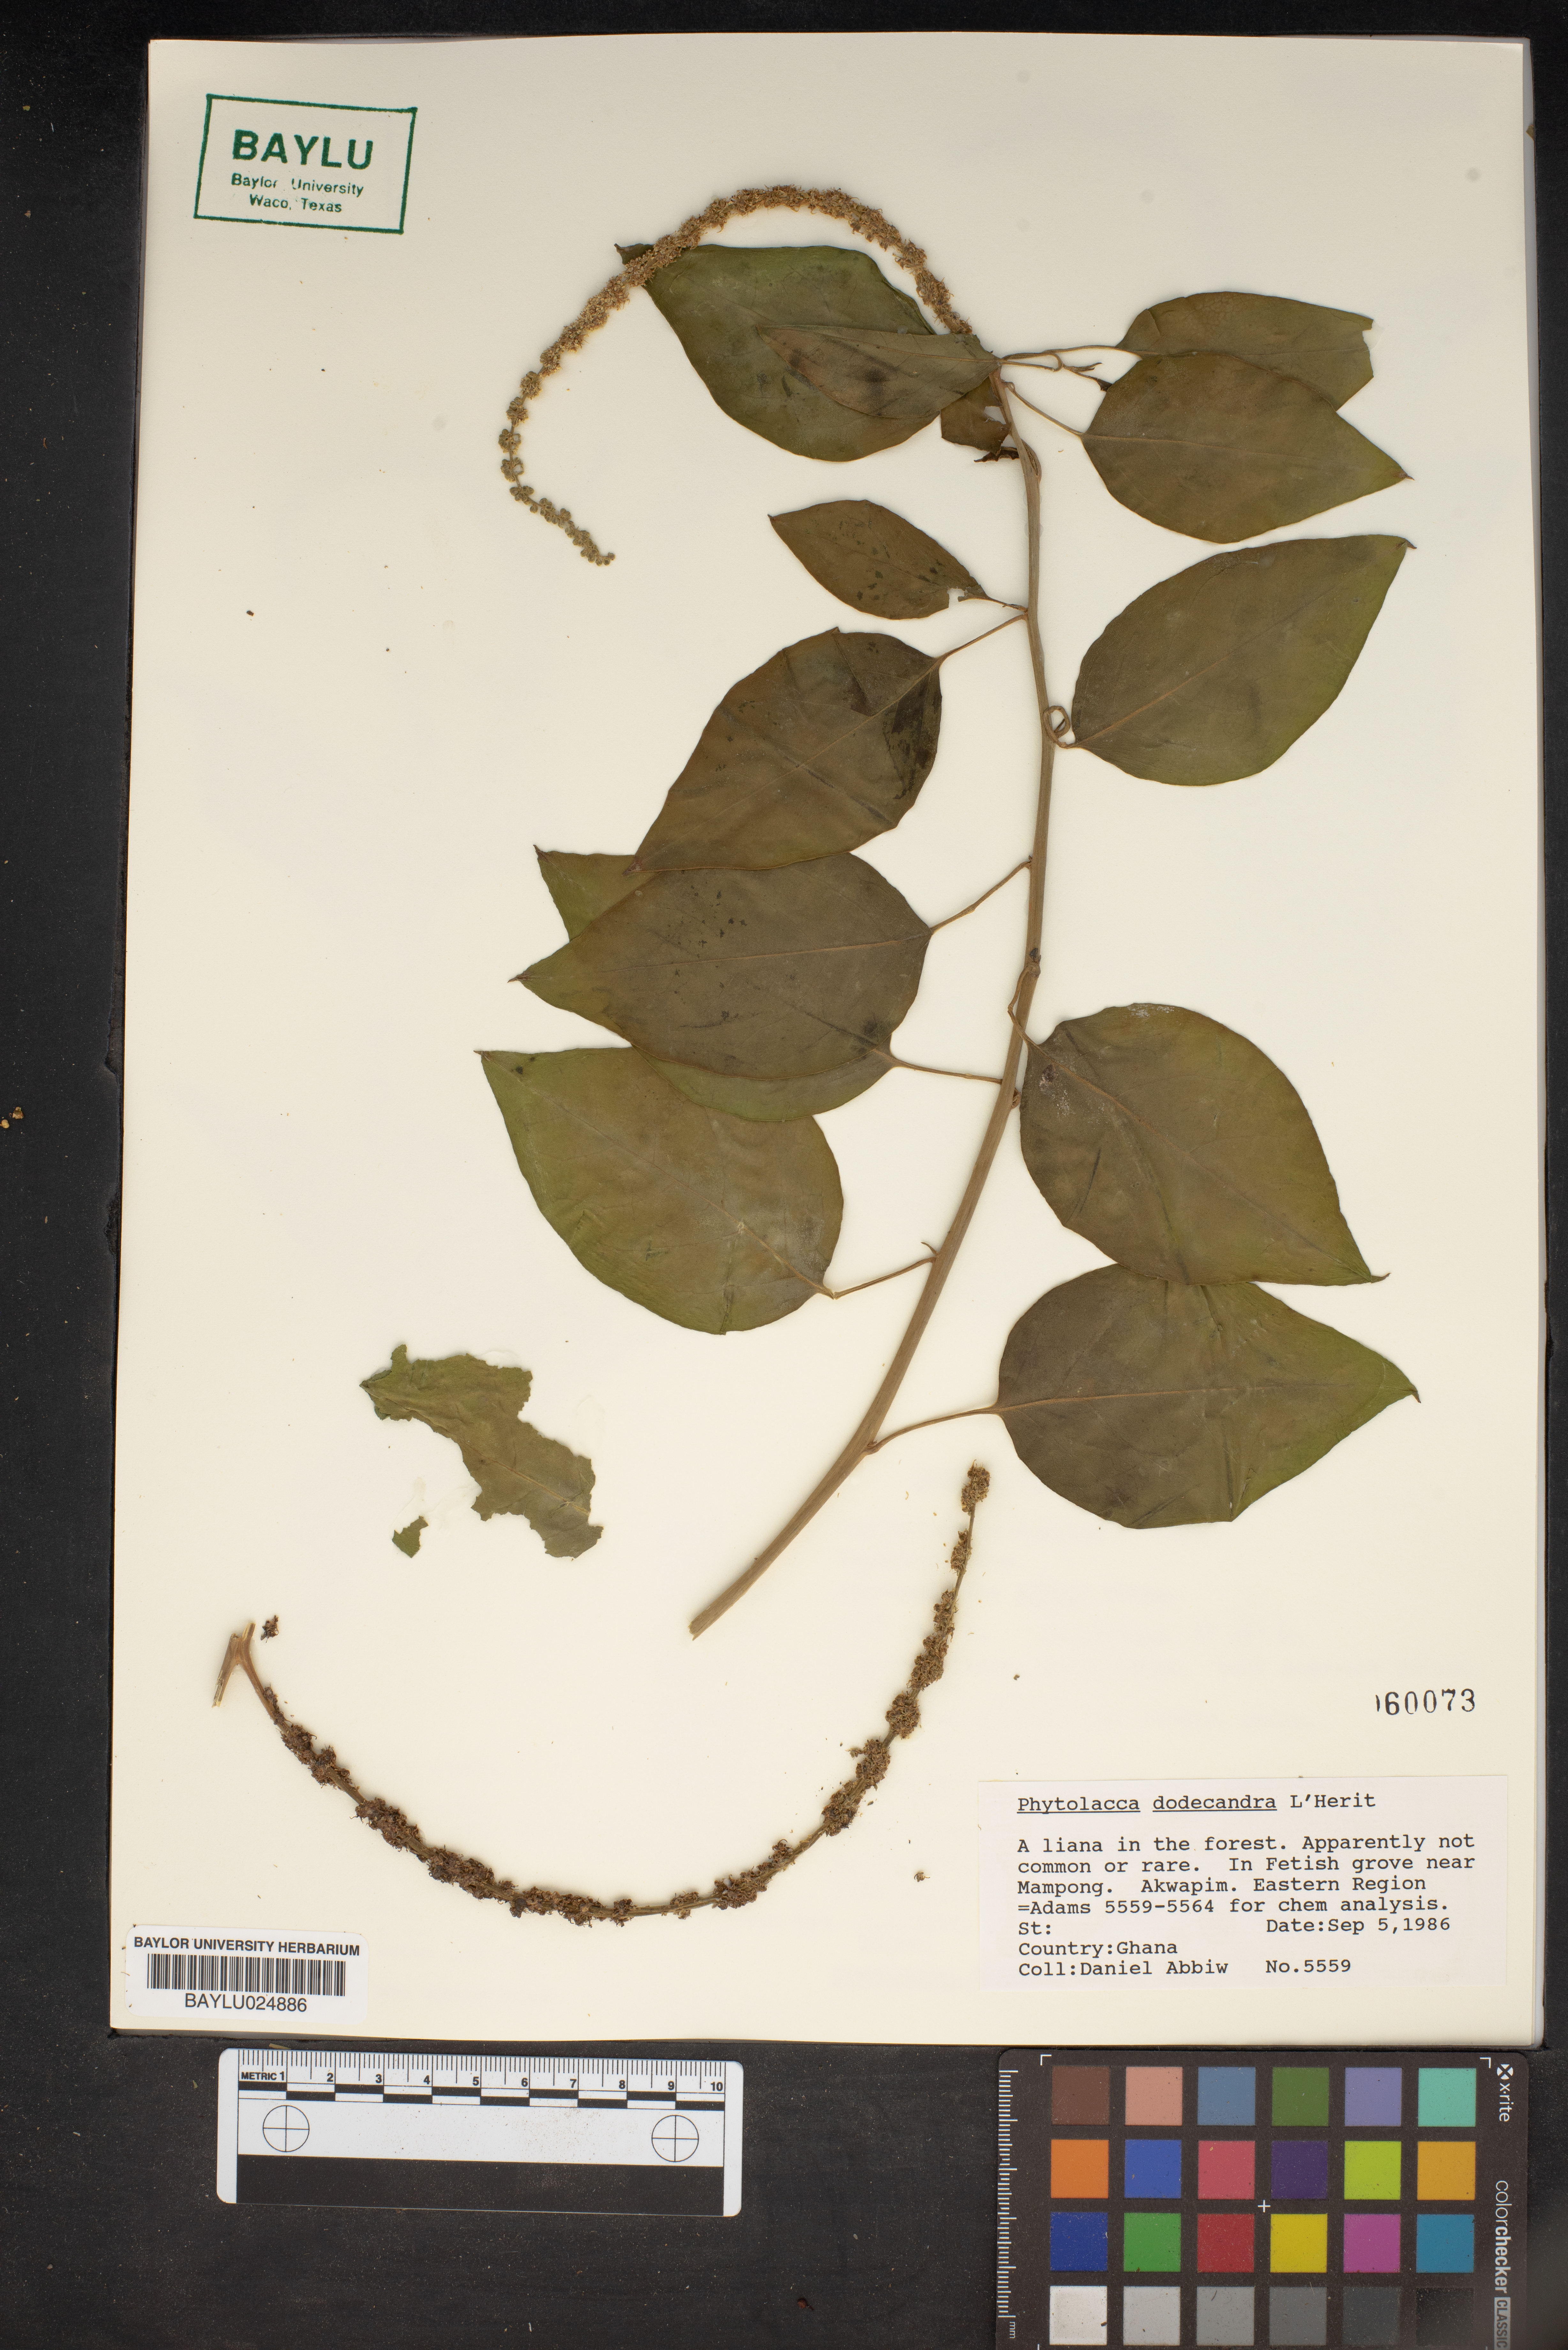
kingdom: Plantae
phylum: Tracheophyta
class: Magnoliopsida
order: Caryophyllales
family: Phytolaccaceae
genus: Phytolacca
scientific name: Phytolacca dodecandra
